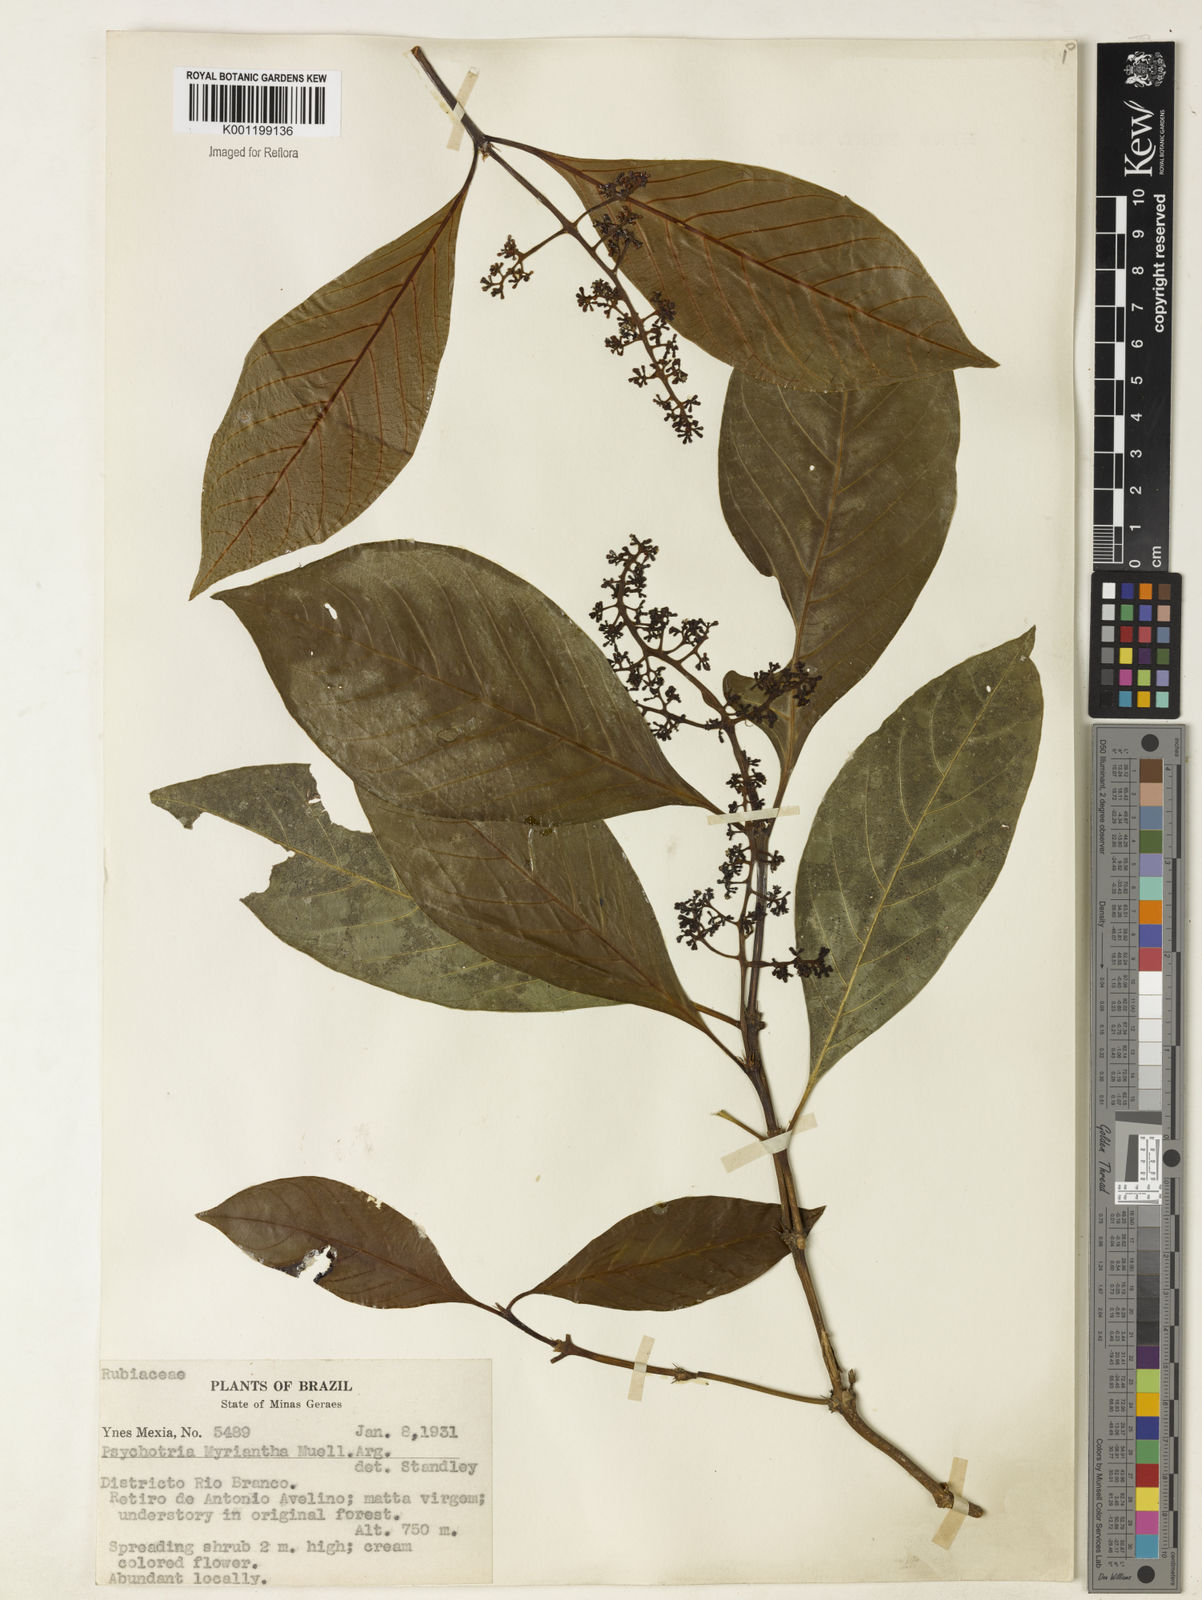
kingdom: Plantae
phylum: Tracheophyta
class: Magnoliopsida
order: Gentianales
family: Rubiaceae
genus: Psychotria
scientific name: Psychotria
